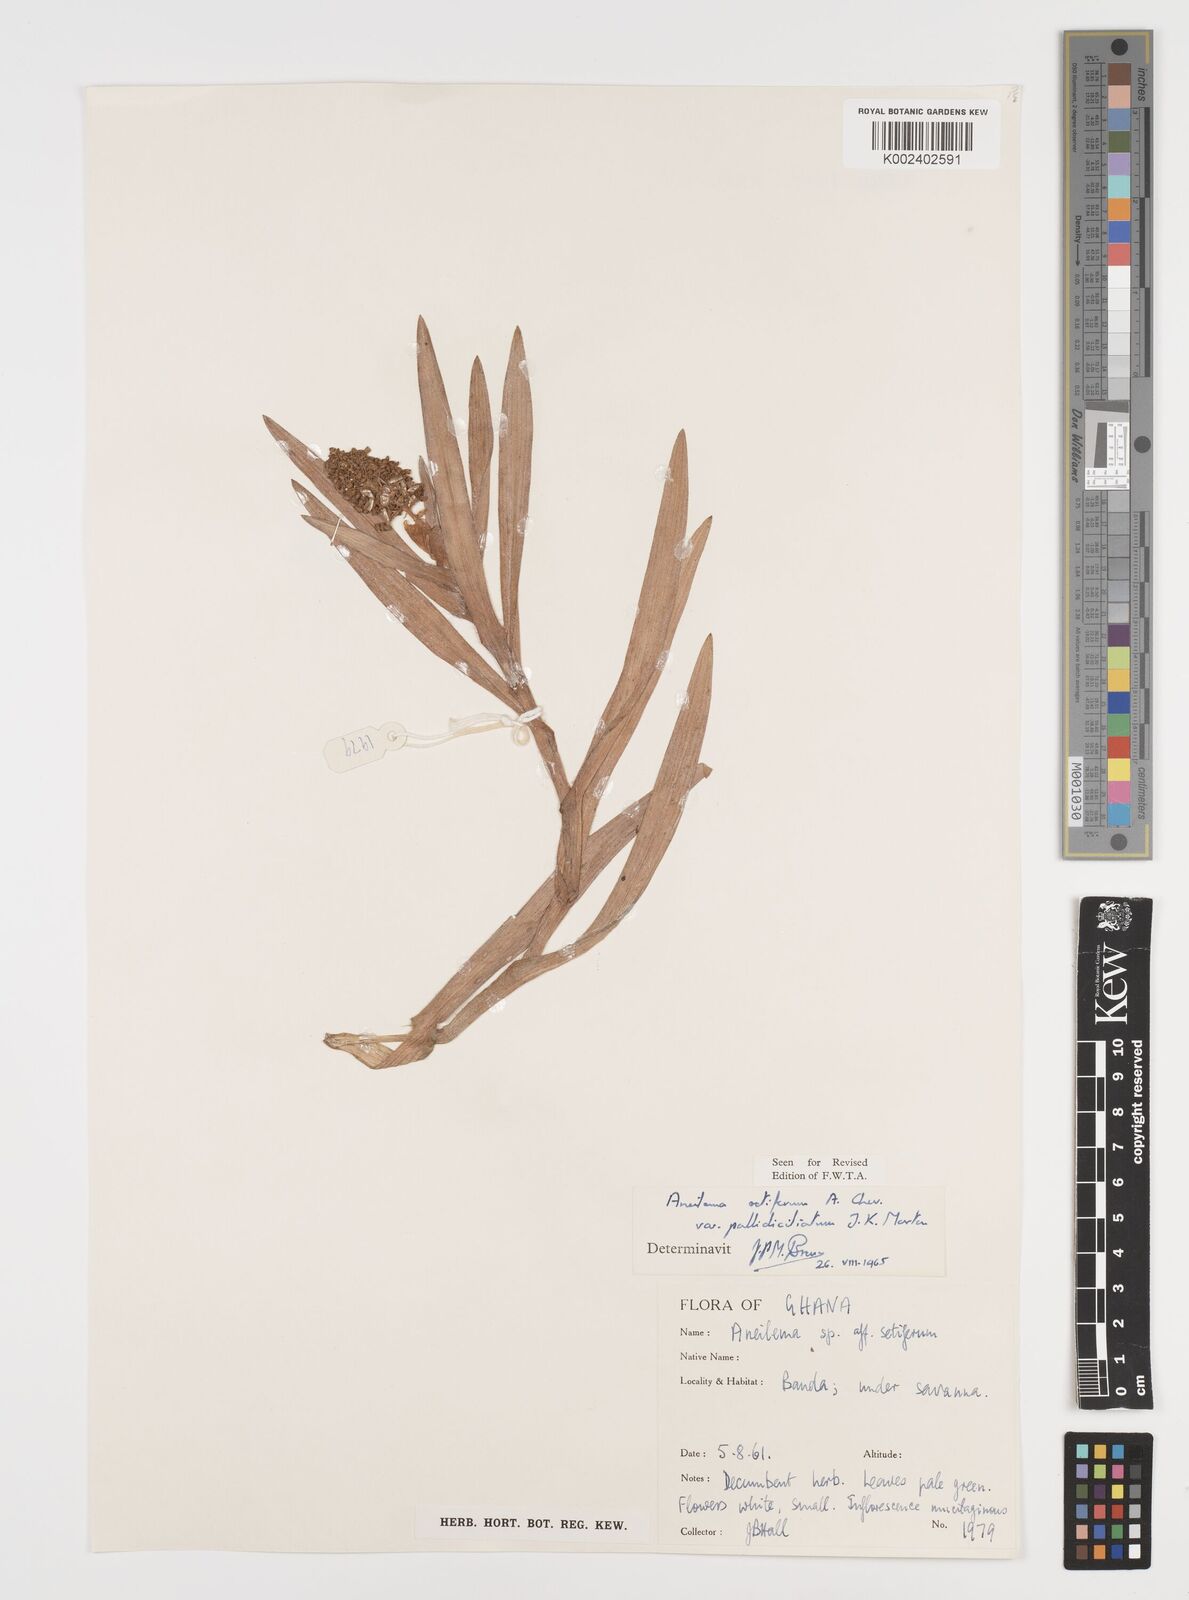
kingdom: Plantae
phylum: Tracheophyta
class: Liliopsida
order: Commelinales
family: Commelinaceae
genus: Aneilema
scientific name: Aneilema setiferum
